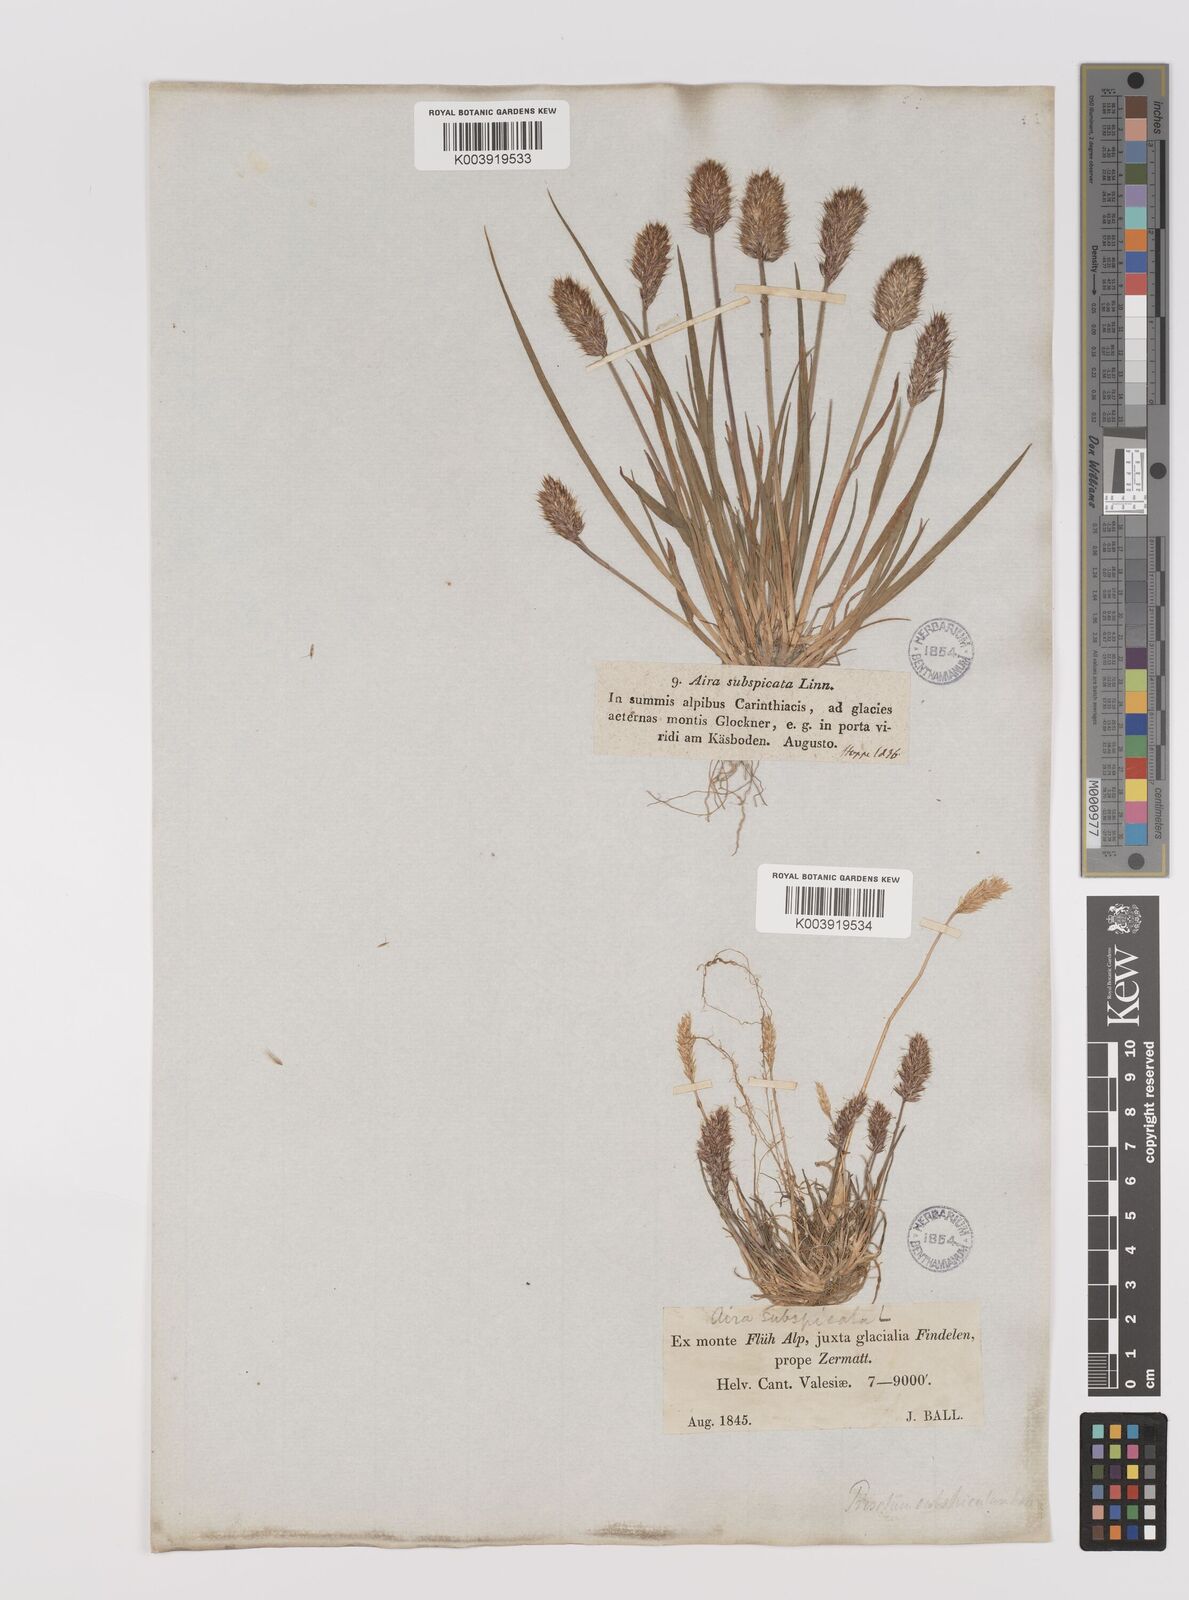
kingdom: Plantae
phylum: Tracheophyta
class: Liliopsida
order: Poales
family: Poaceae
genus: Koeleria
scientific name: Koeleria spicata
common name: Mountain trisetum
